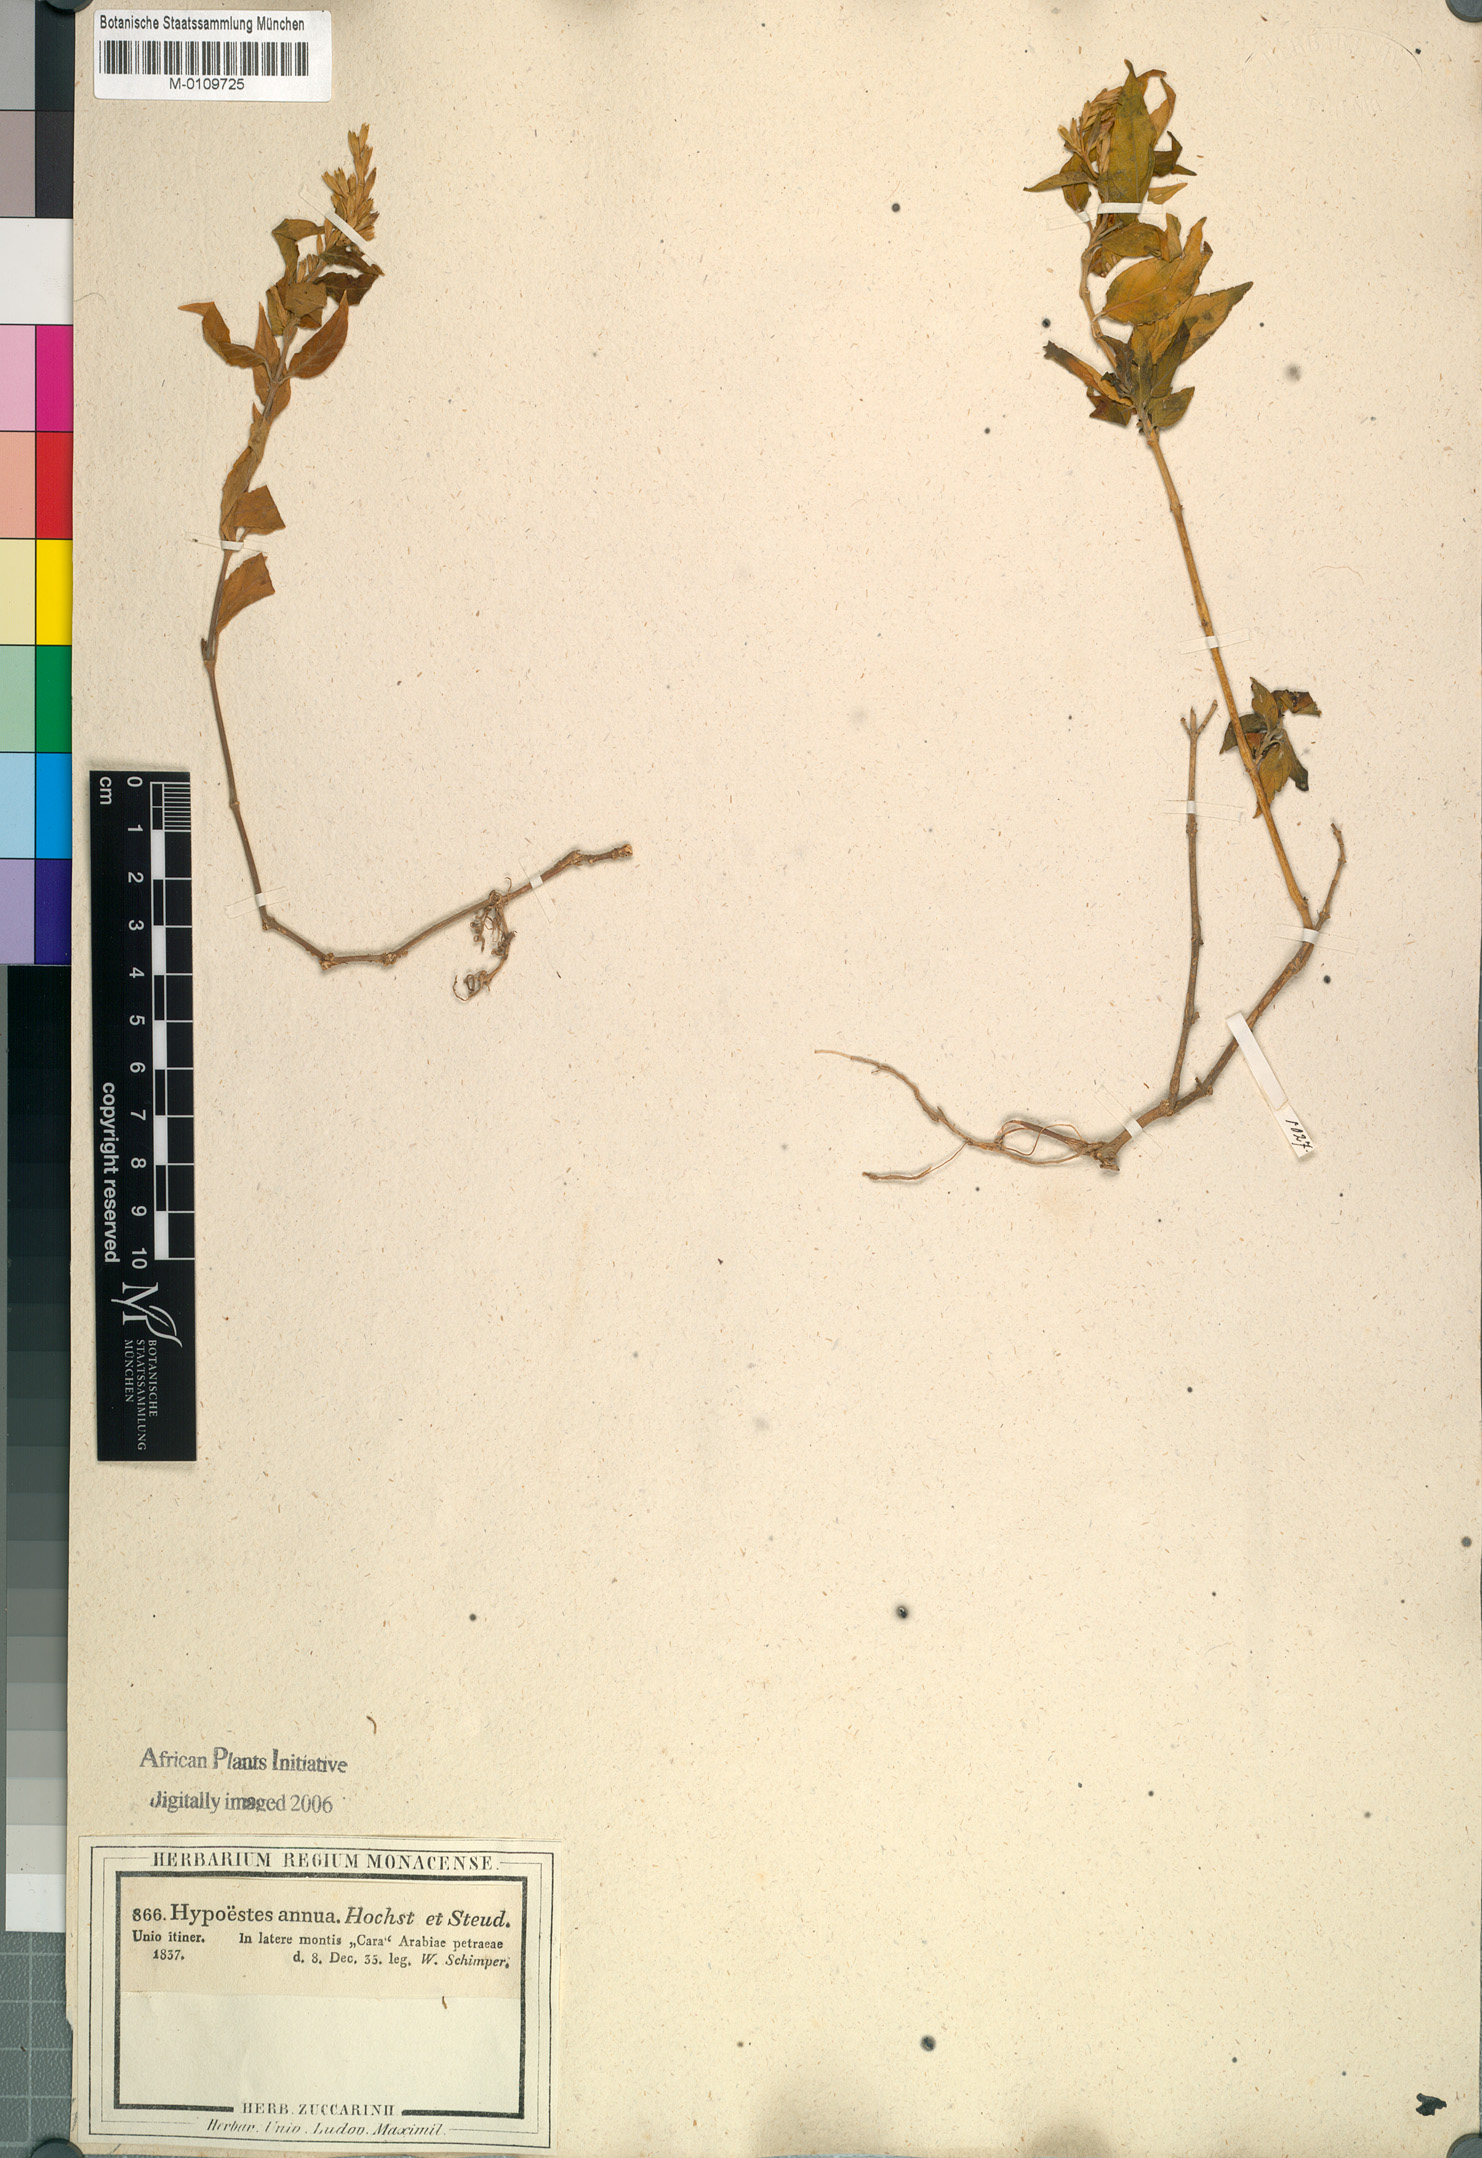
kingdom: Plantae
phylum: Tracheophyta
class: Magnoliopsida
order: Lamiales
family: Acanthaceae
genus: Hypoestes
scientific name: Hypoestes forskaolii
